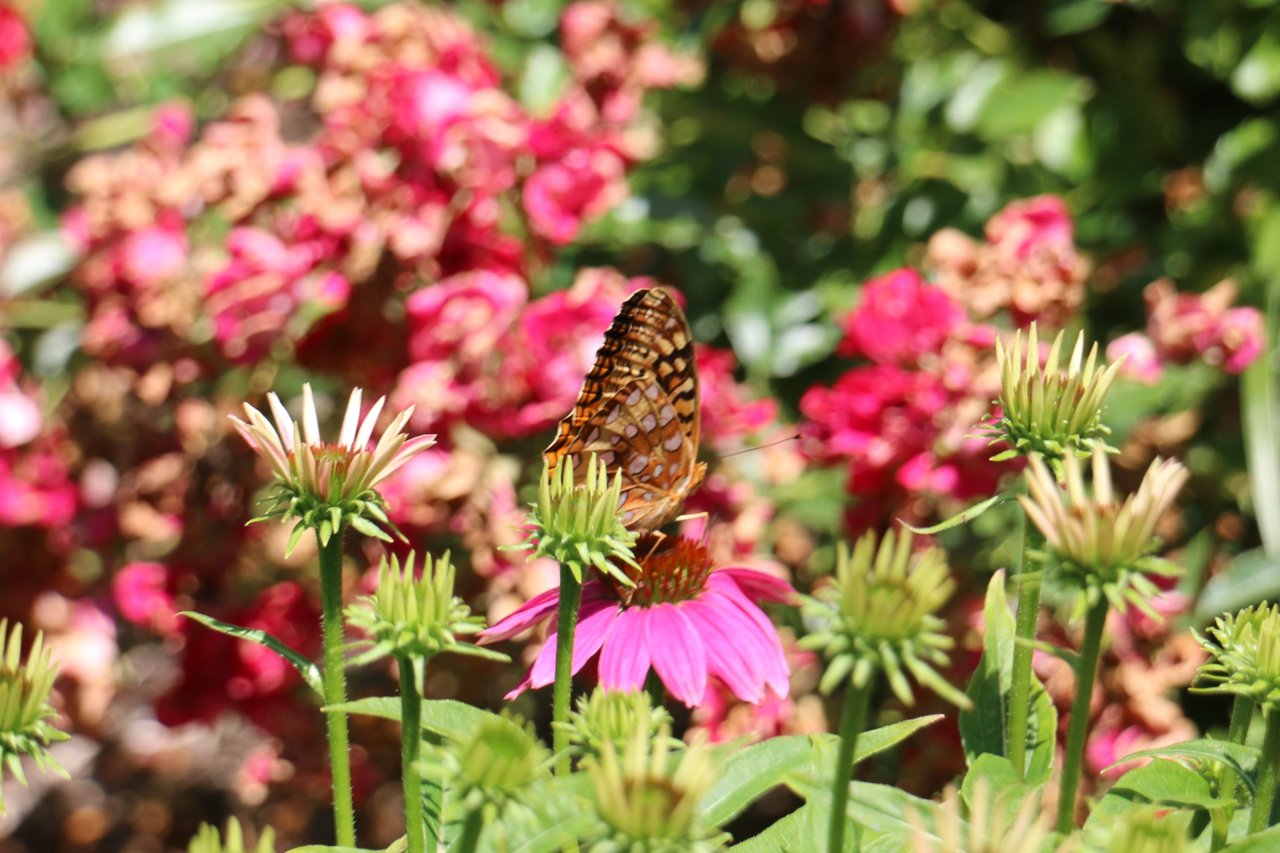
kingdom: Animalia
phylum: Arthropoda
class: Insecta
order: Lepidoptera
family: Nymphalidae
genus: Speyeria
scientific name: Speyeria cybele
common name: Great Spangled Fritillary
